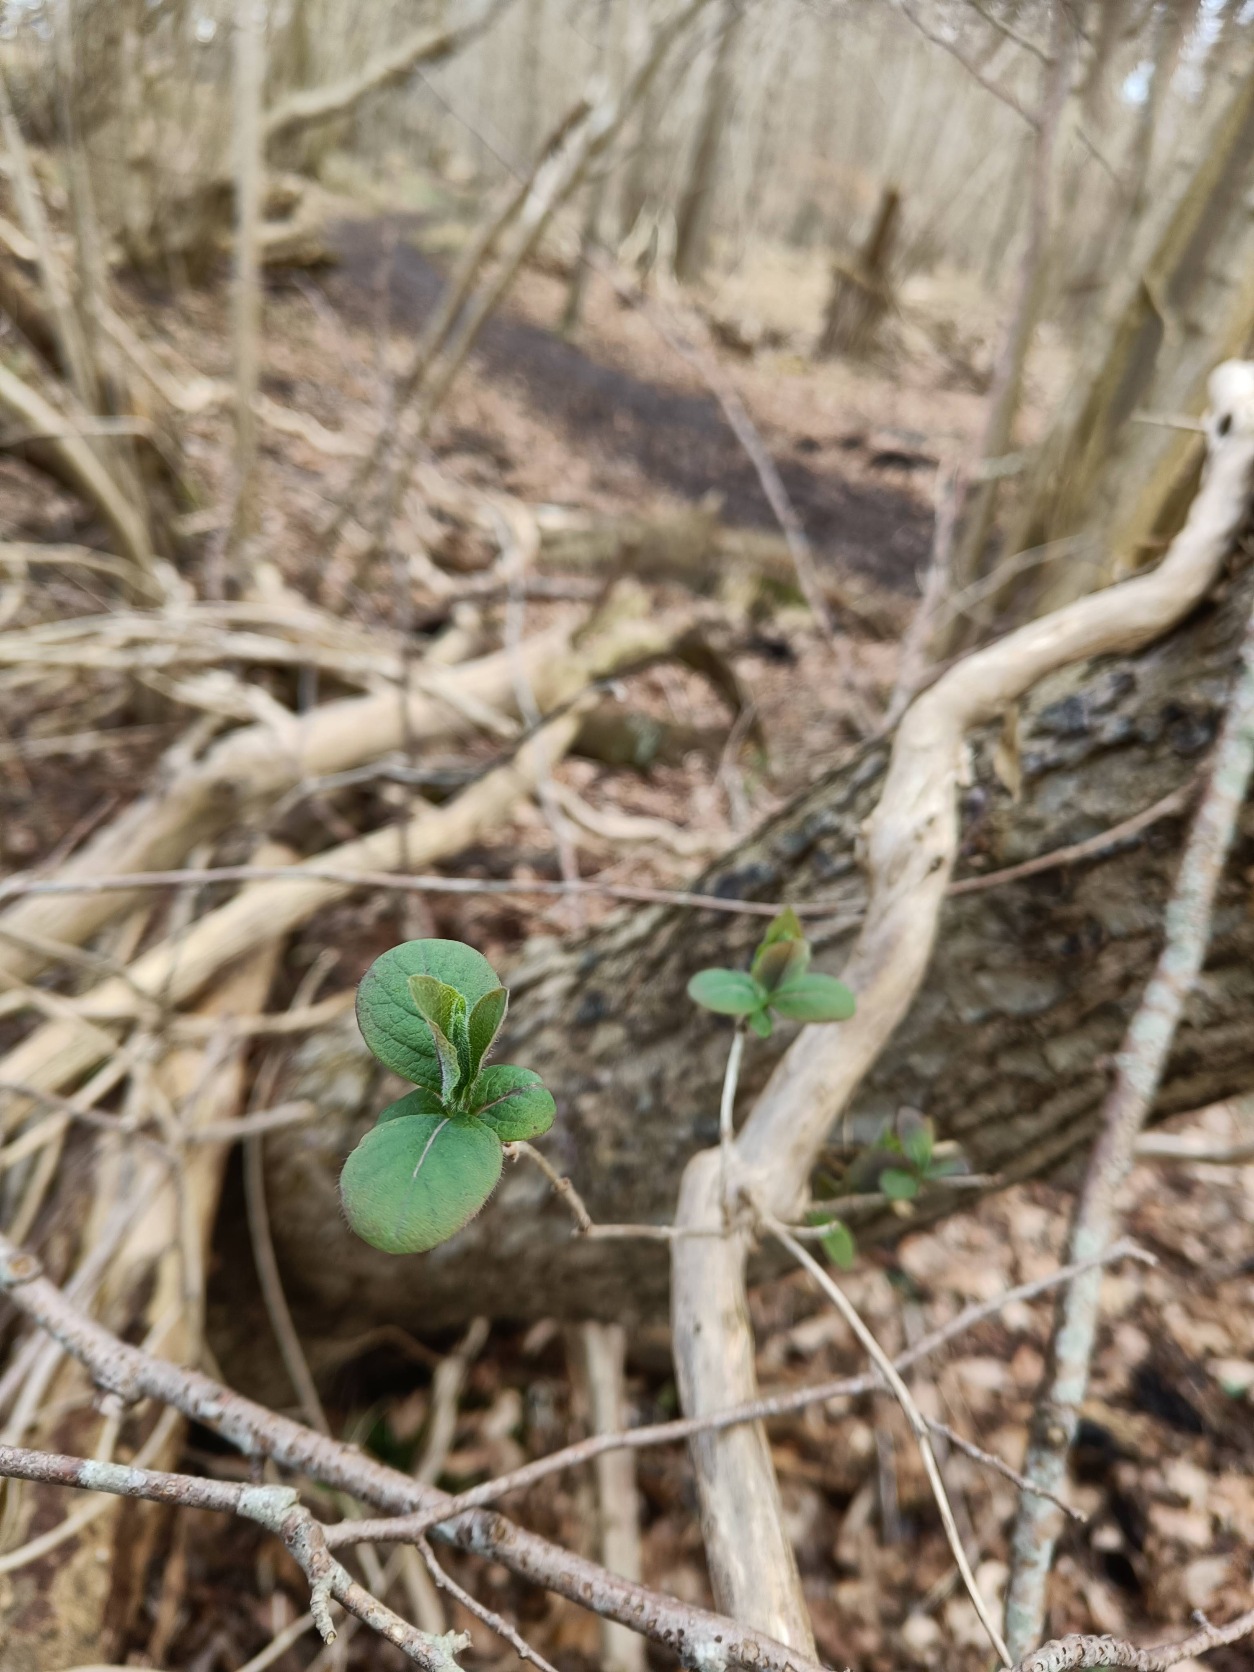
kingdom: Plantae
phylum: Tracheophyta
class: Magnoliopsida
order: Dipsacales
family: Caprifoliaceae
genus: Lonicera
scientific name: Lonicera periclymenum
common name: Almindelig gedeblad
